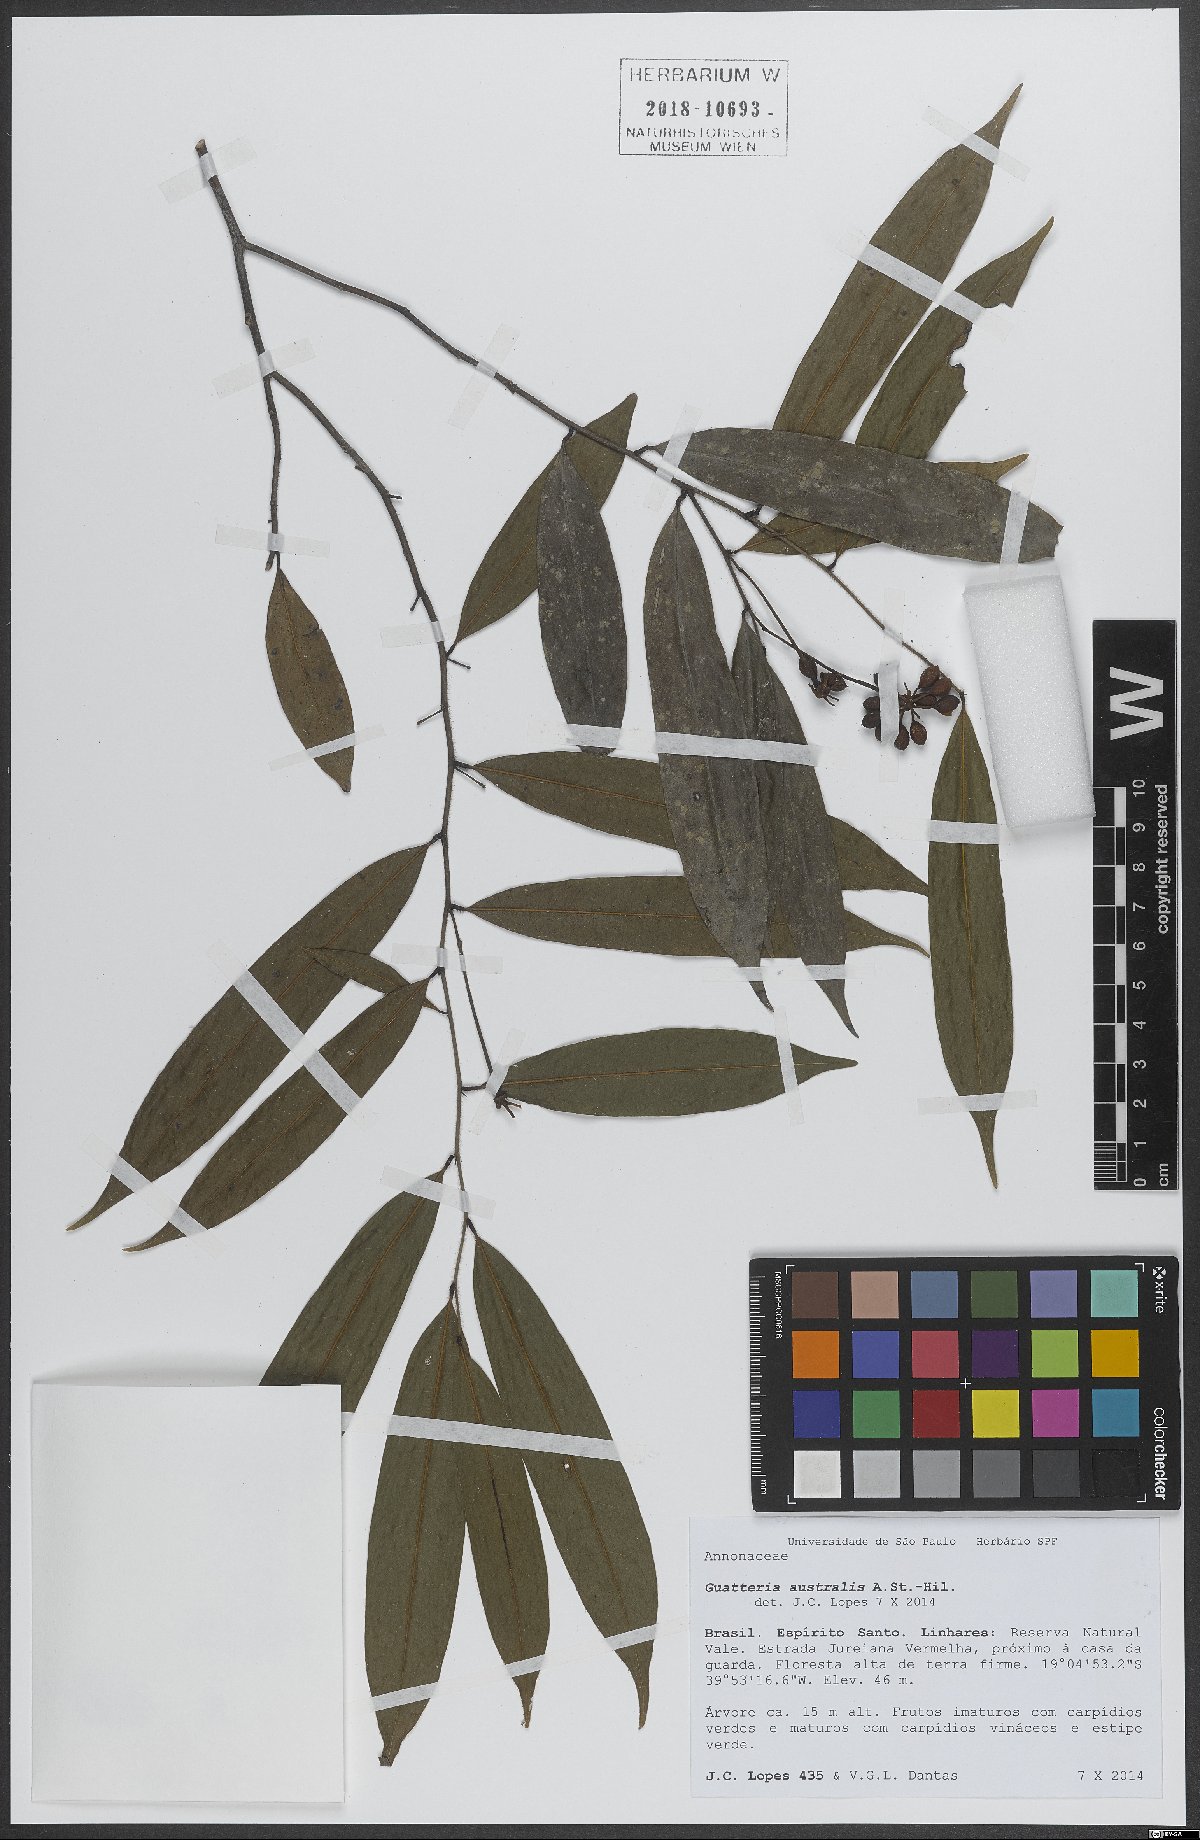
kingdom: Plantae
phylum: Tracheophyta
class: Magnoliopsida
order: Magnoliales
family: Annonaceae
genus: Guatteria
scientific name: Guatteria australis
